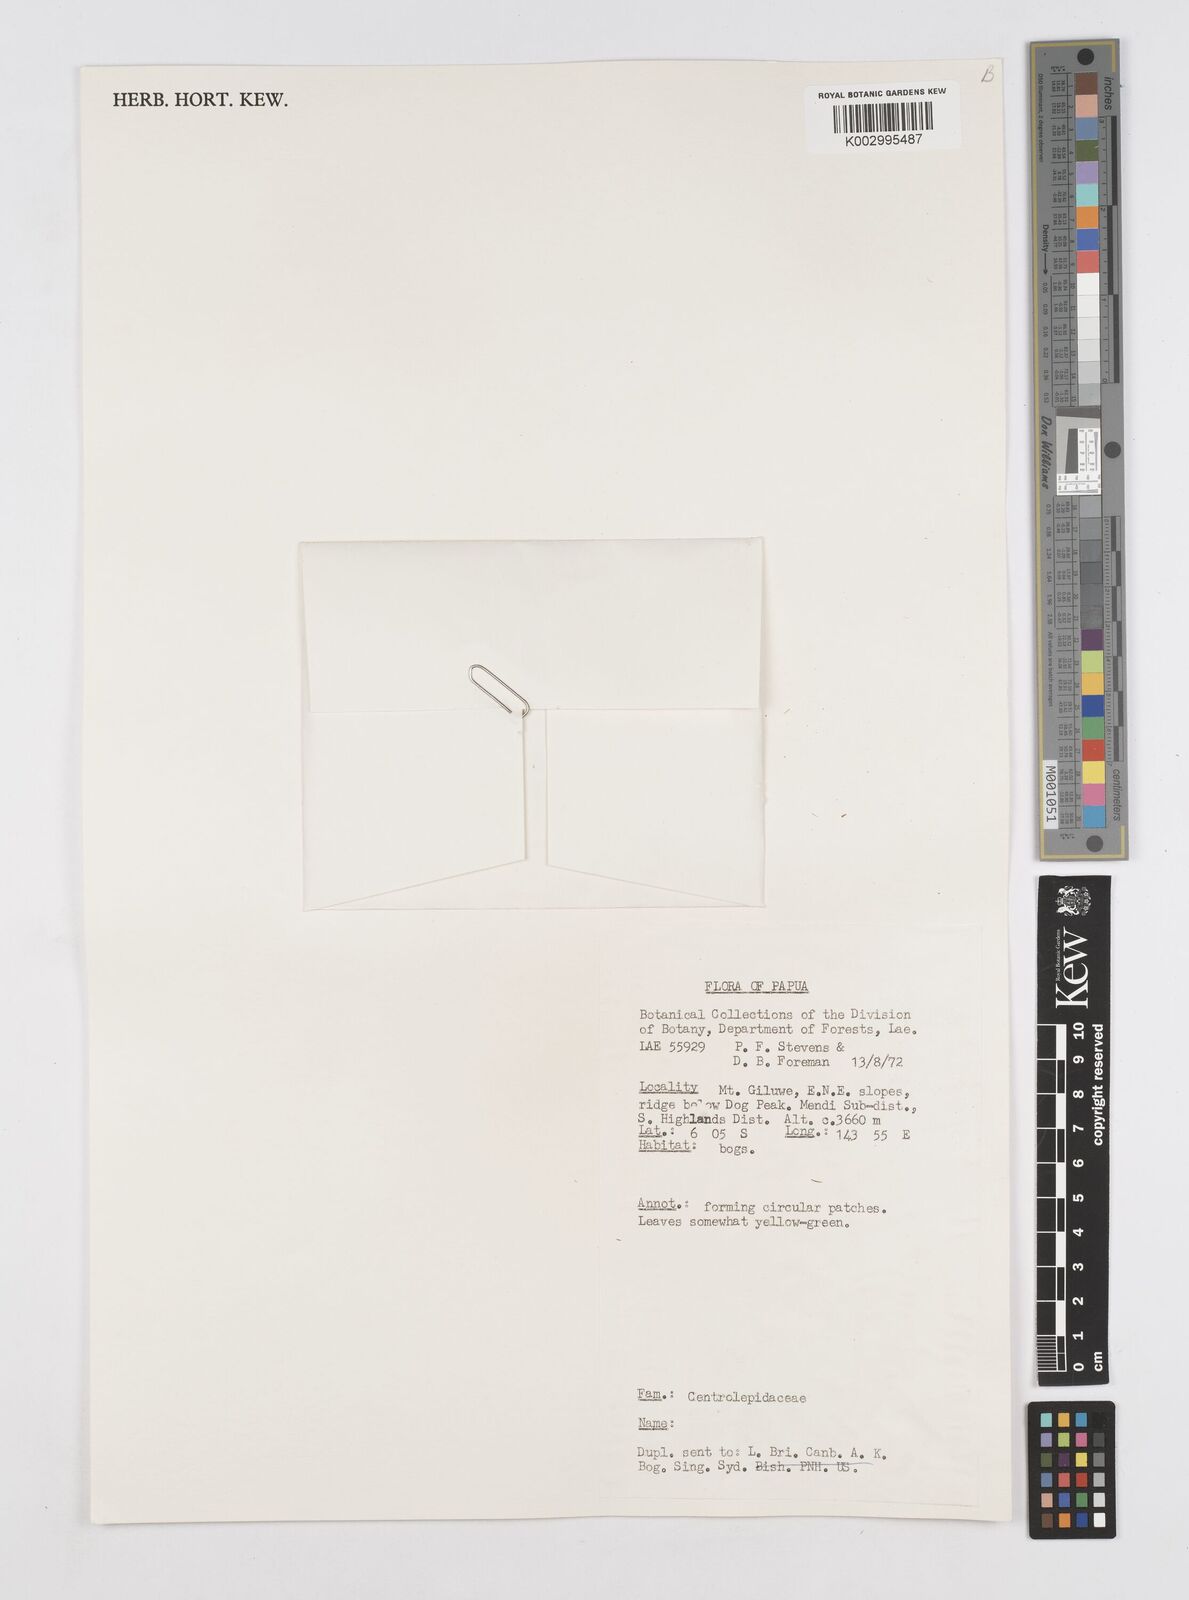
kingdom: Plantae
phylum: Tracheophyta
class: Liliopsida
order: Poales
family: Restionaceae
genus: Centrolepis
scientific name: Centrolepis
